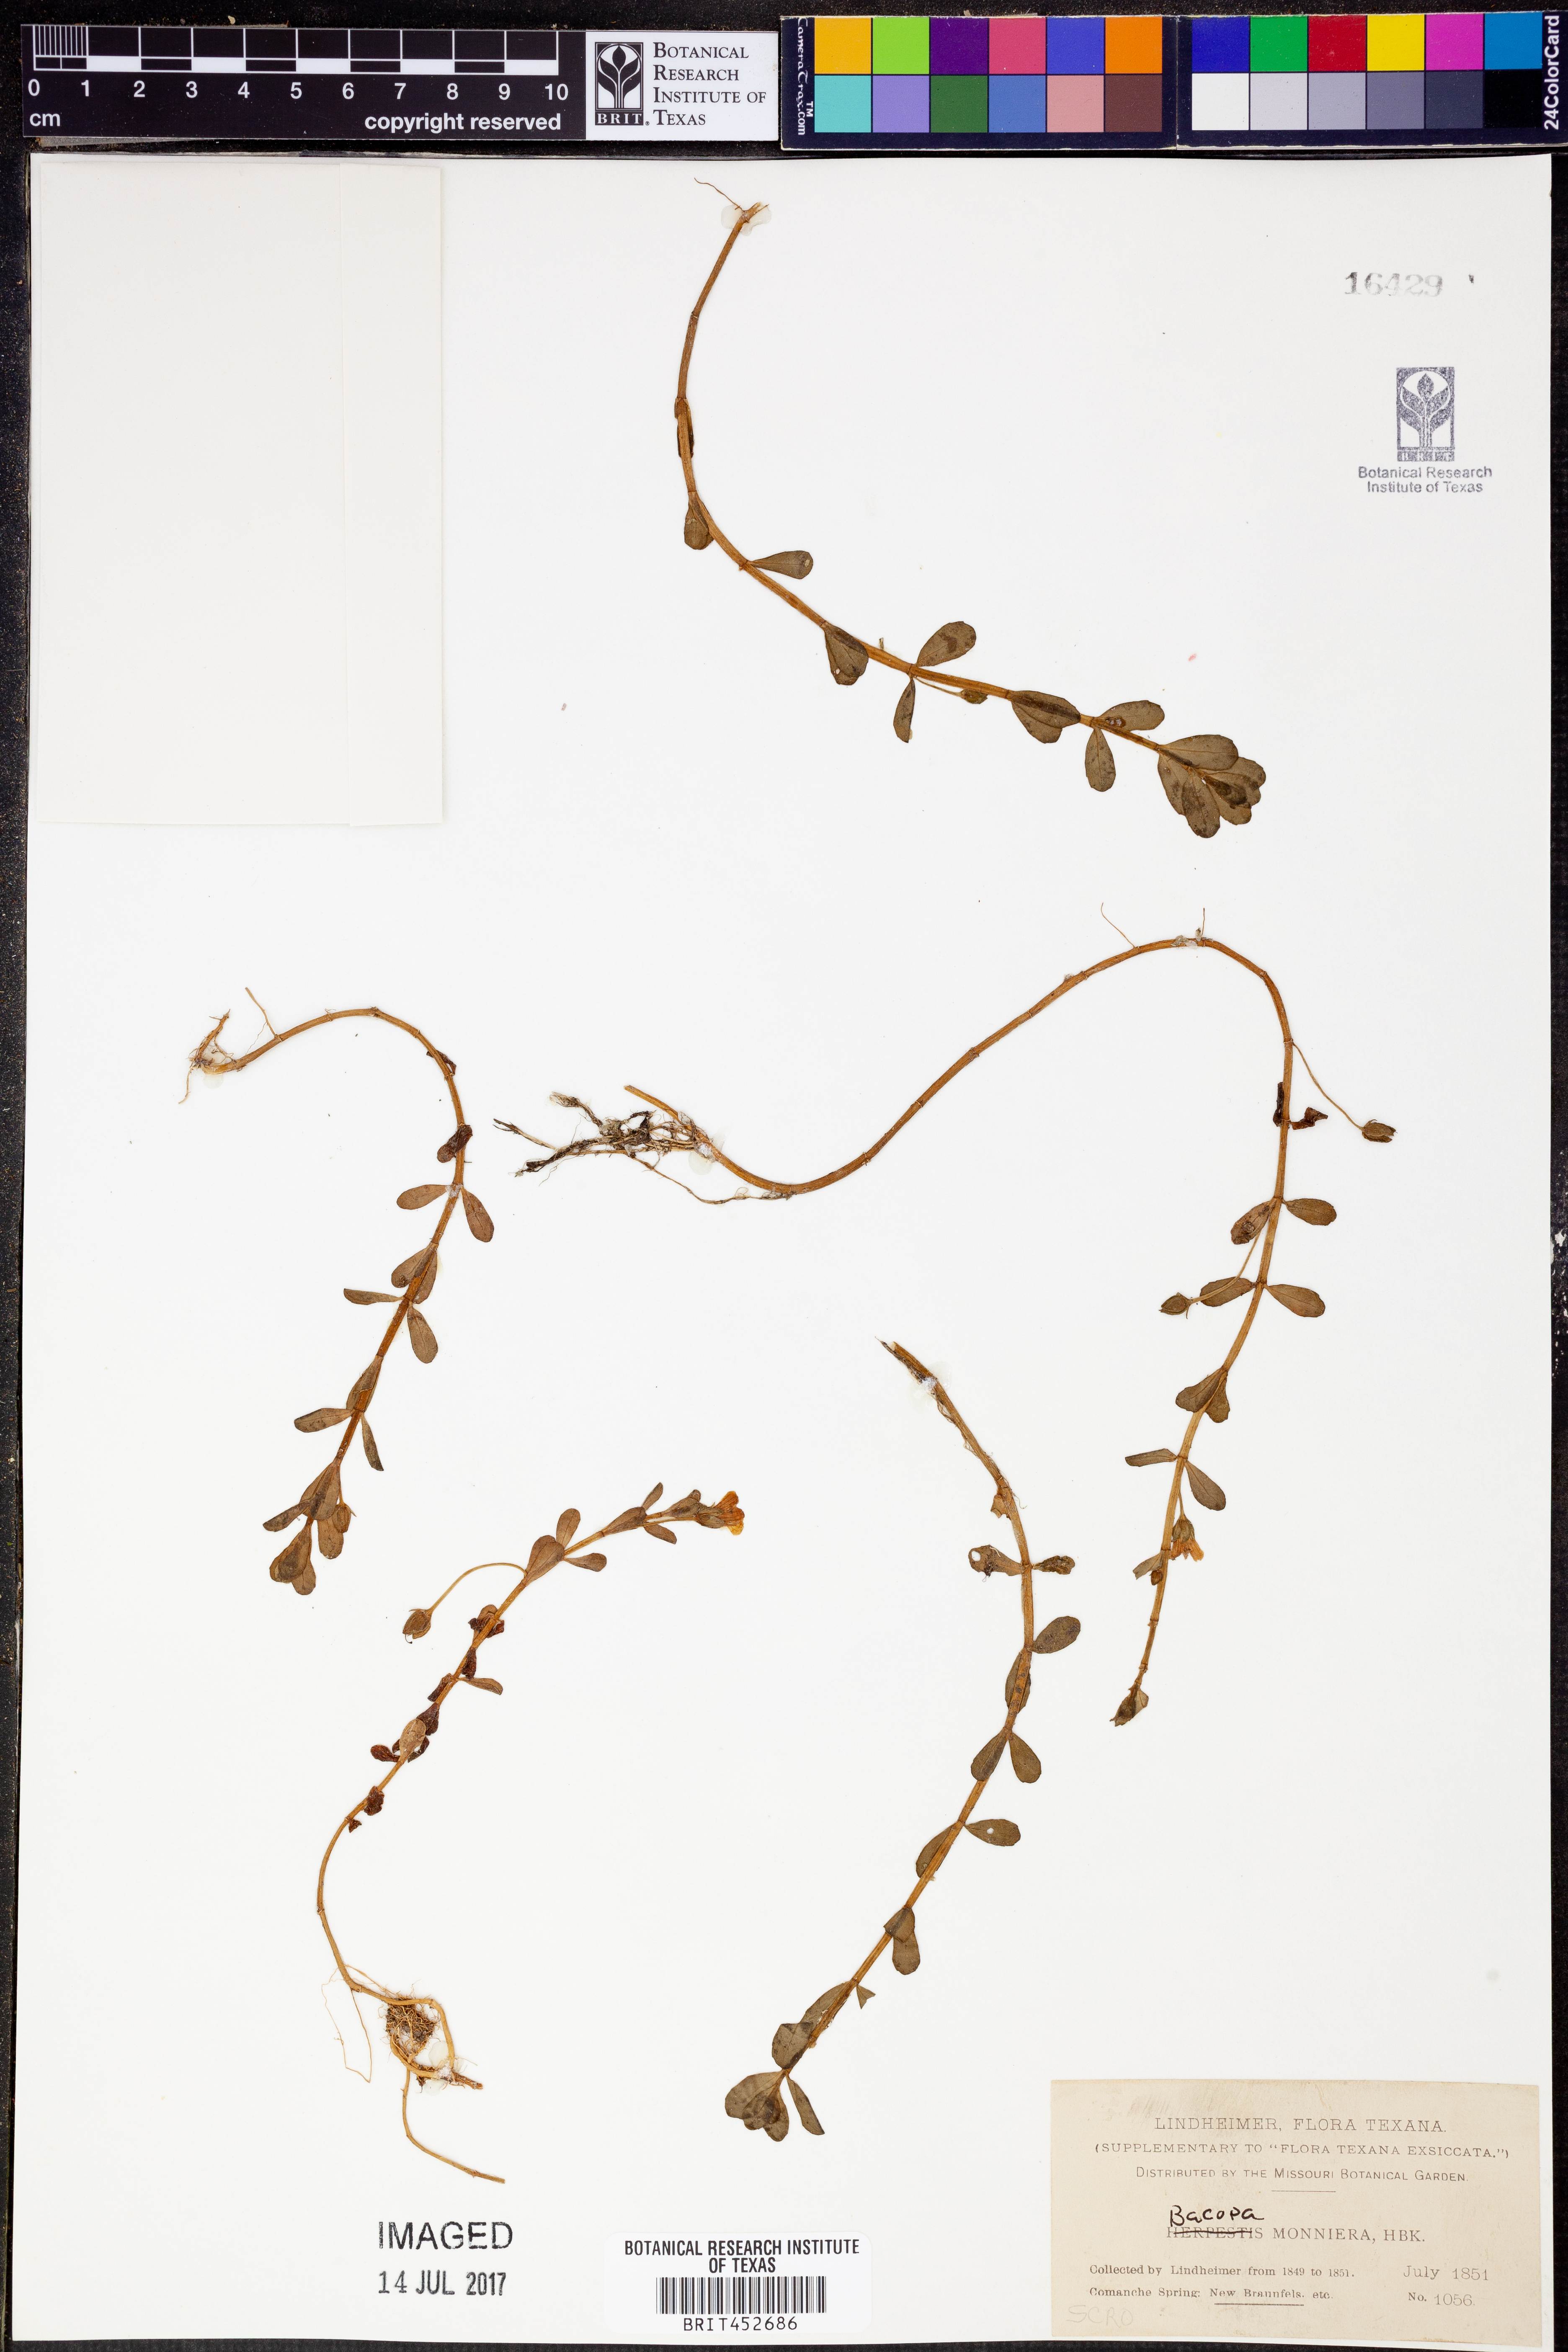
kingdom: Plantae
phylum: Tracheophyta
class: Magnoliopsida
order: Lamiales
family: Plantaginaceae
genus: Bacopa
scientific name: Bacopa monnieri
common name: Indian-pennywort
